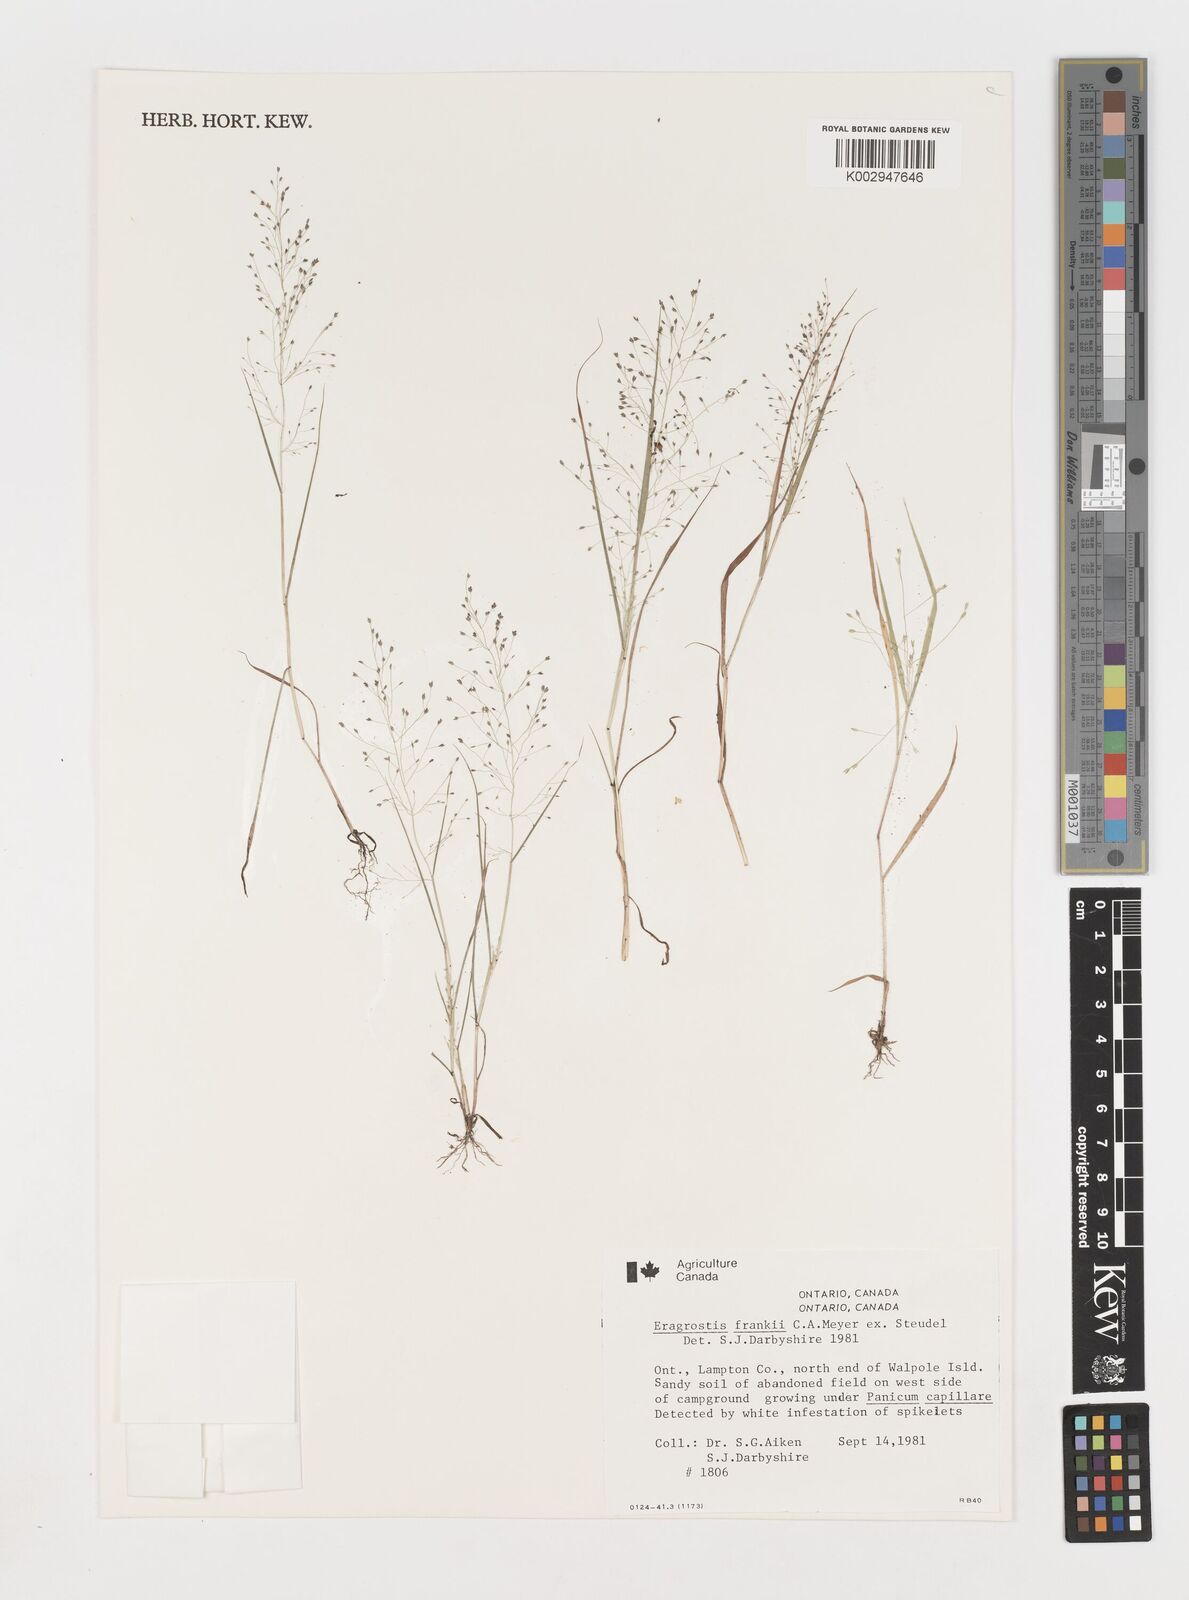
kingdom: Plantae
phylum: Tracheophyta
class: Liliopsida
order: Poales
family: Poaceae
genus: Eragrostis
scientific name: Eragrostis frankii
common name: Frank's lovegrass
